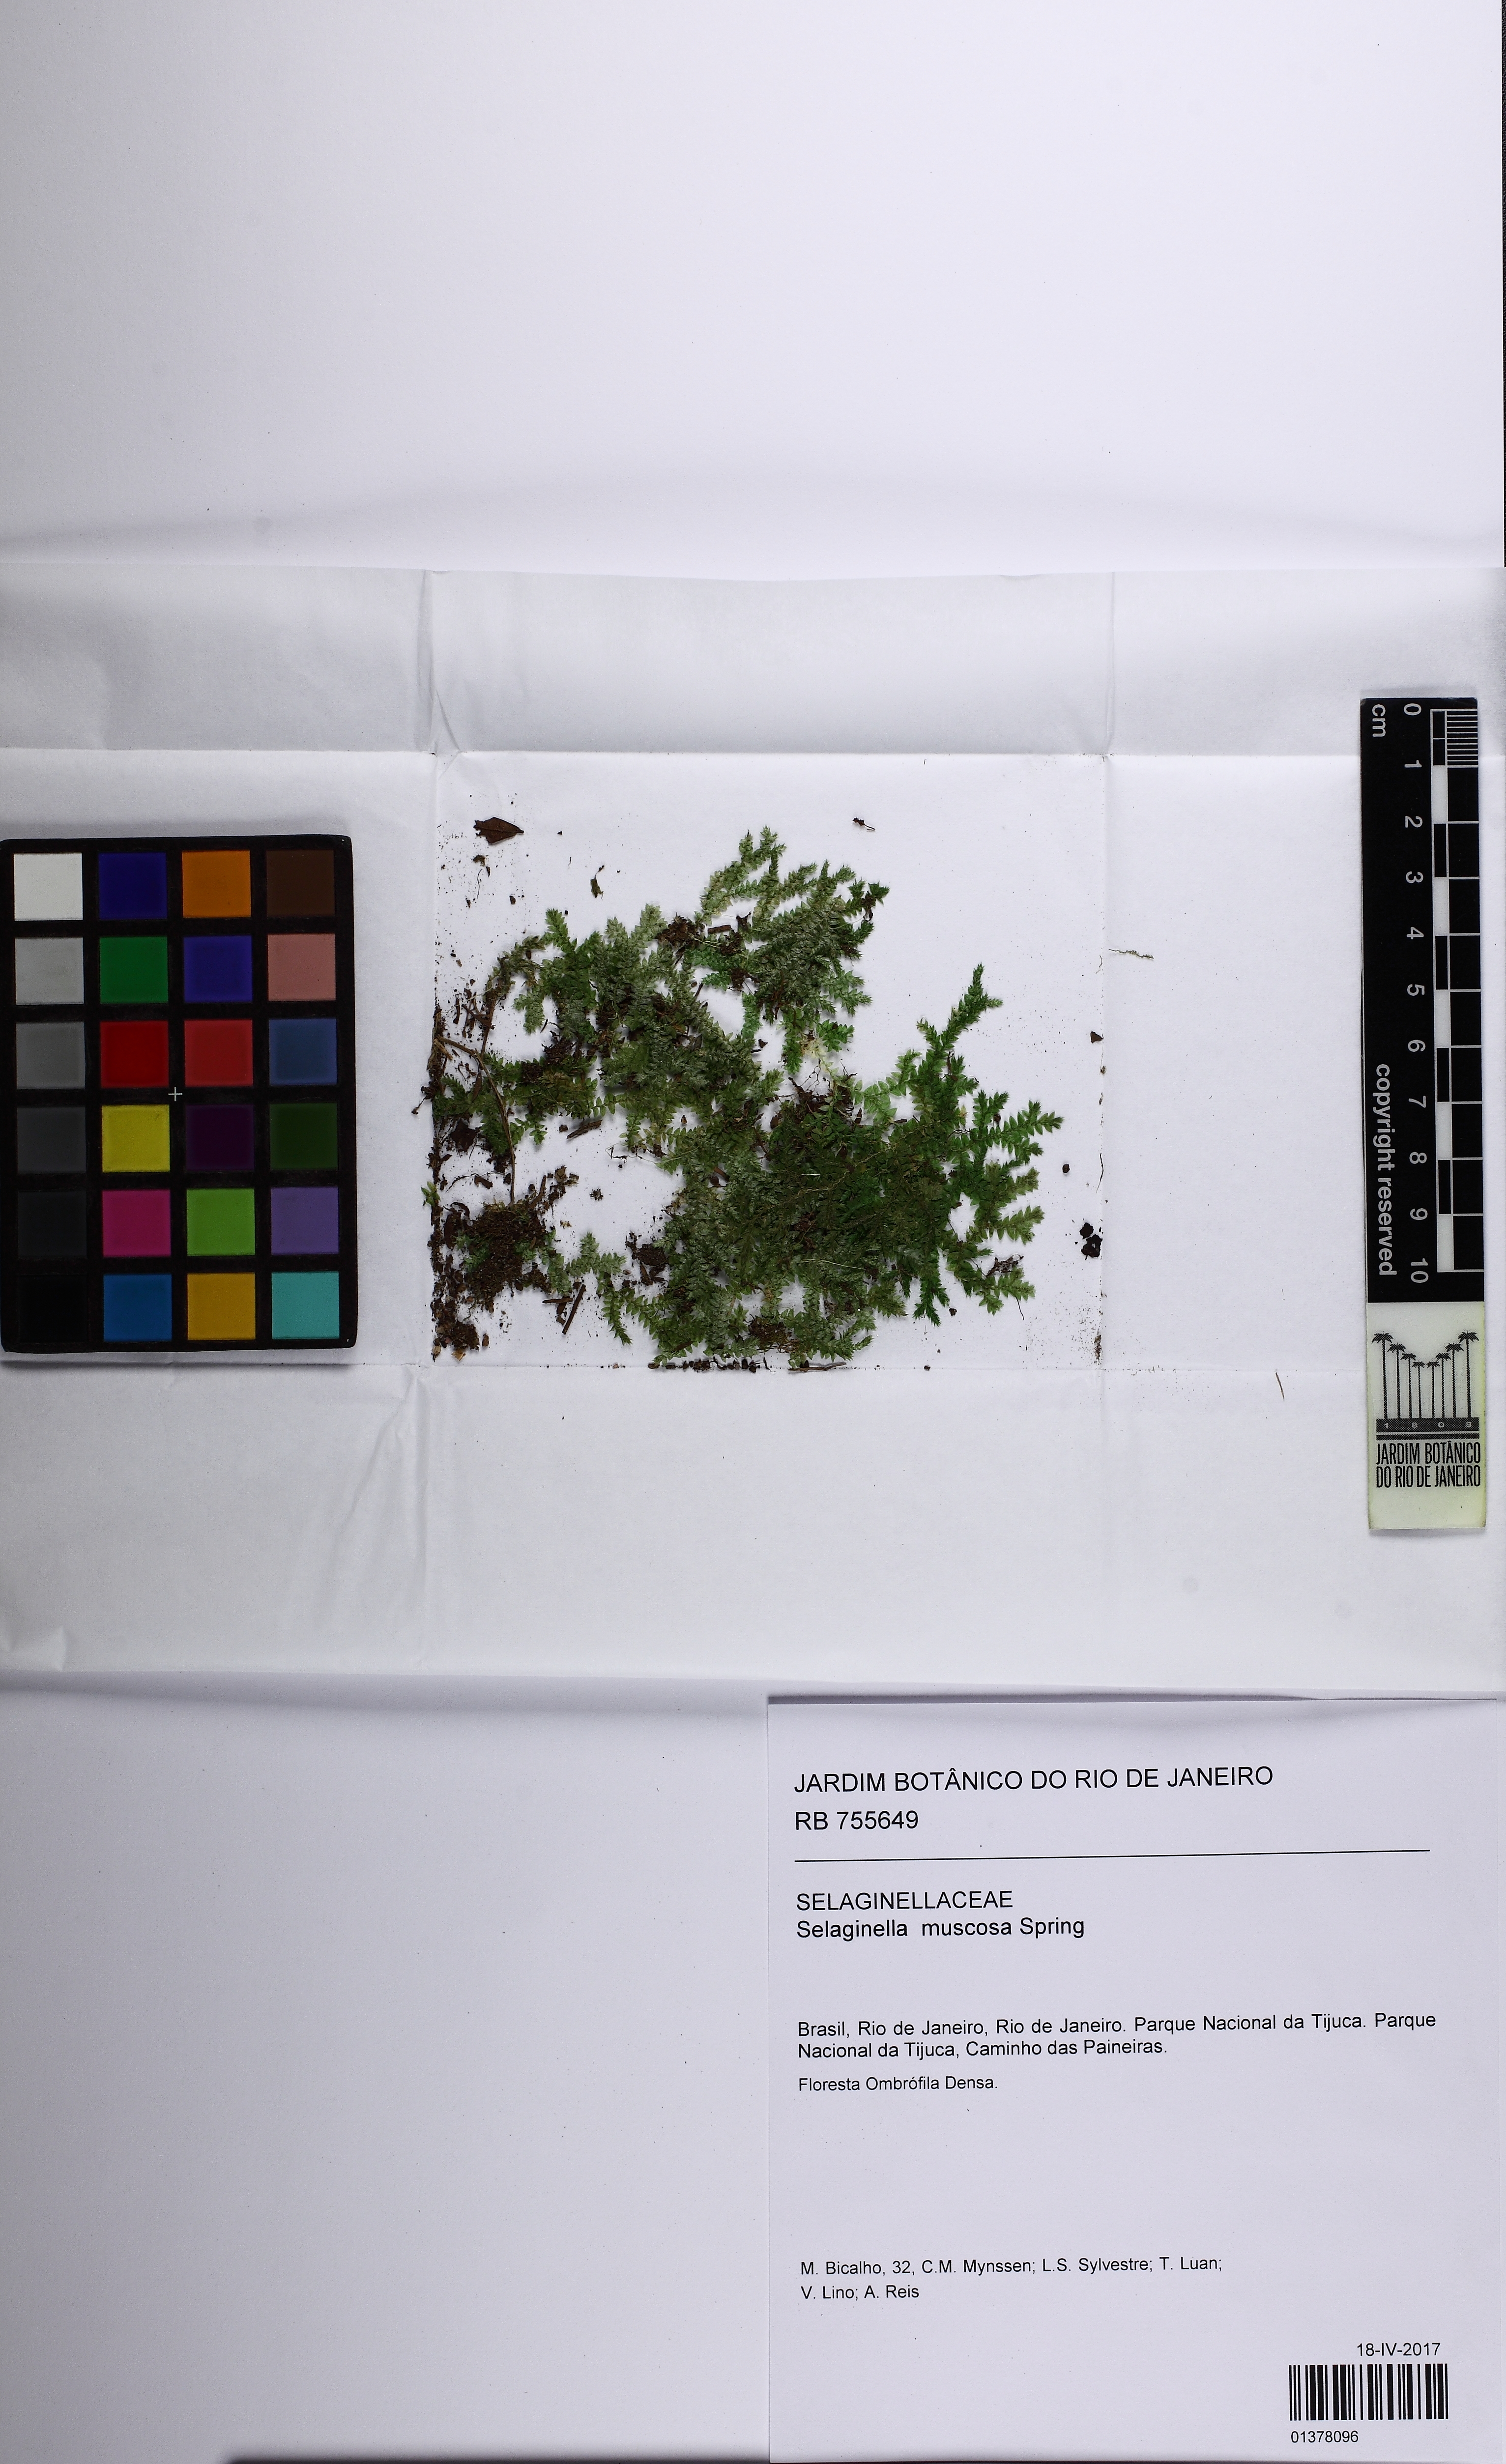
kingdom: Plantae
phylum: Tracheophyta
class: Lycopodiopsida
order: Selaginellales
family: Selaginellaceae
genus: Selaginella
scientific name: Selaginella muscosa
